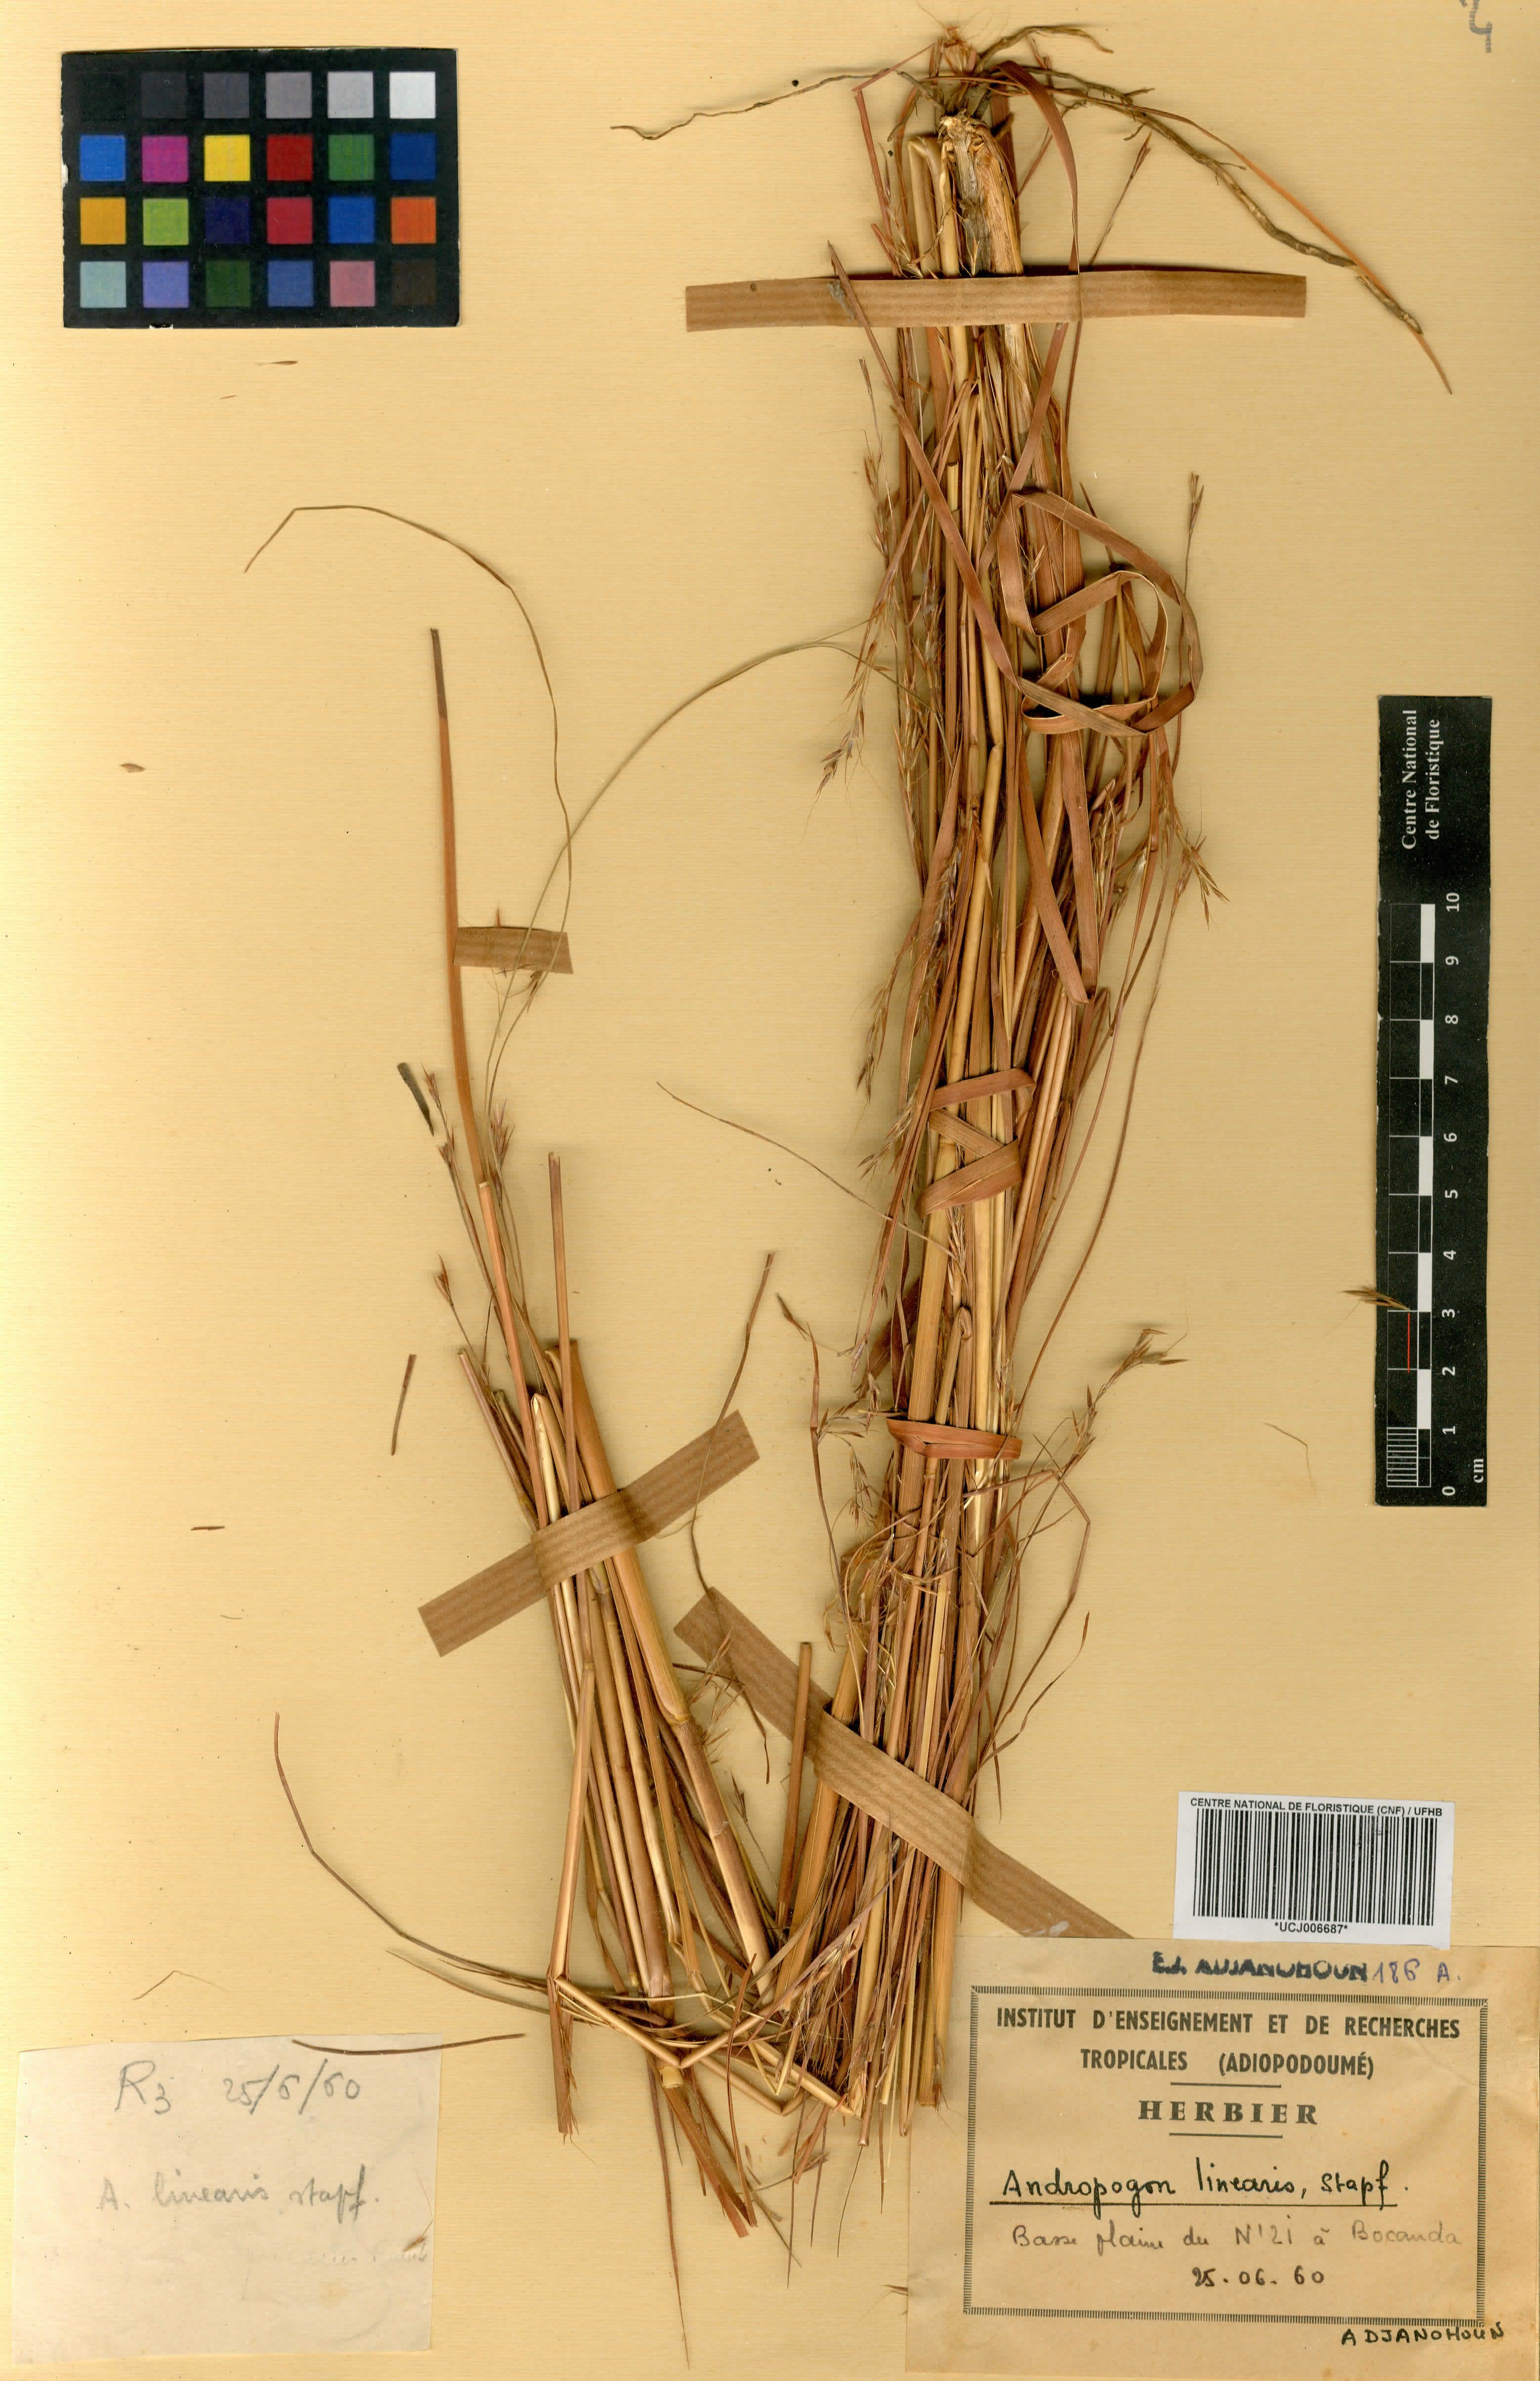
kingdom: Plantae
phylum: Tracheophyta
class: Liliopsida
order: Poales
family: Poaceae
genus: Andropogon
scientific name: Andropogon africanus
